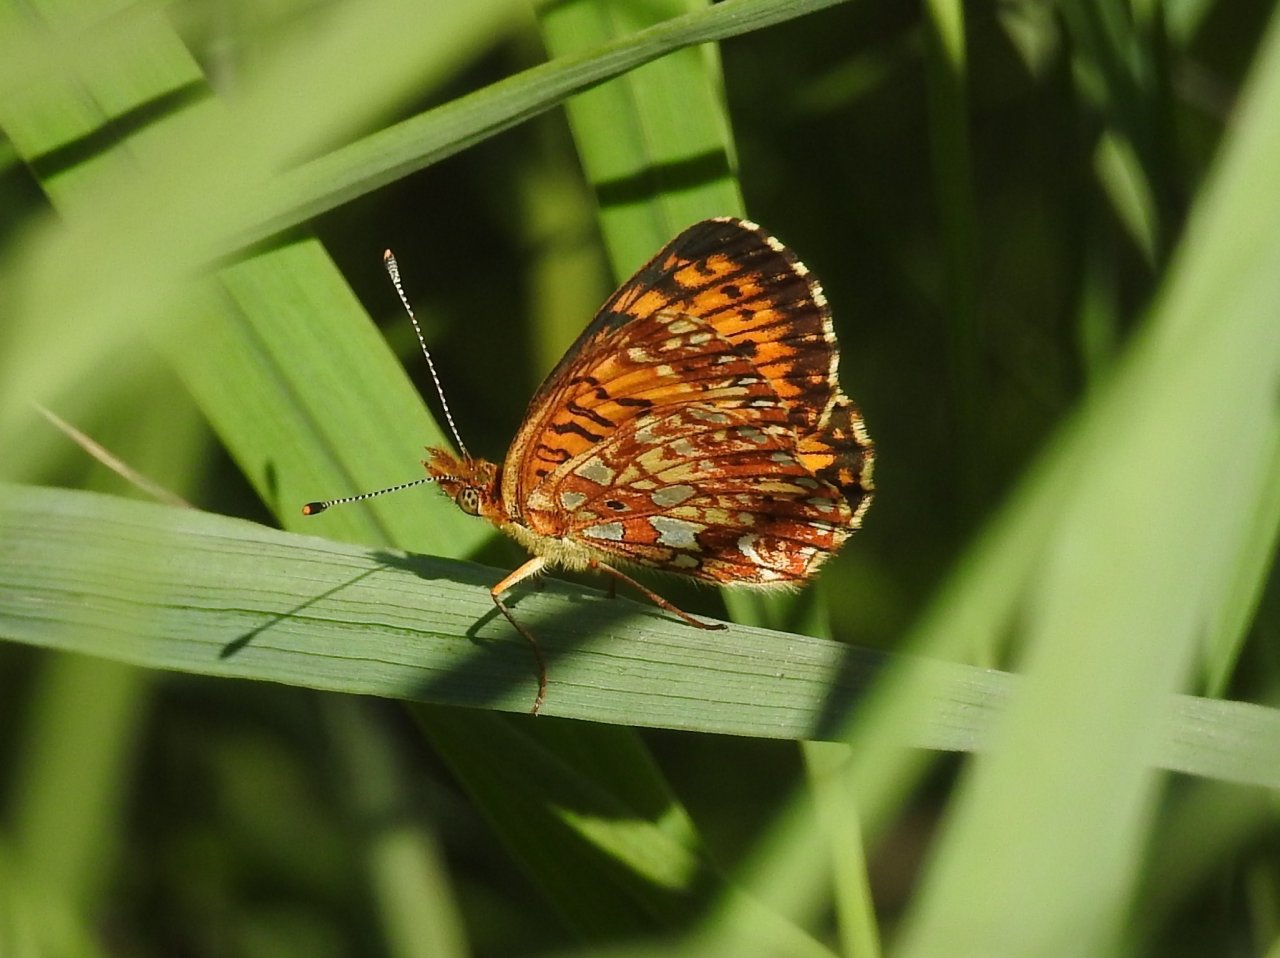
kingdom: Animalia
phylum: Arthropoda
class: Insecta
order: Lepidoptera
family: Nymphalidae
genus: Boloria
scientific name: Boloria selene
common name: Silver-bordered Fritillary
